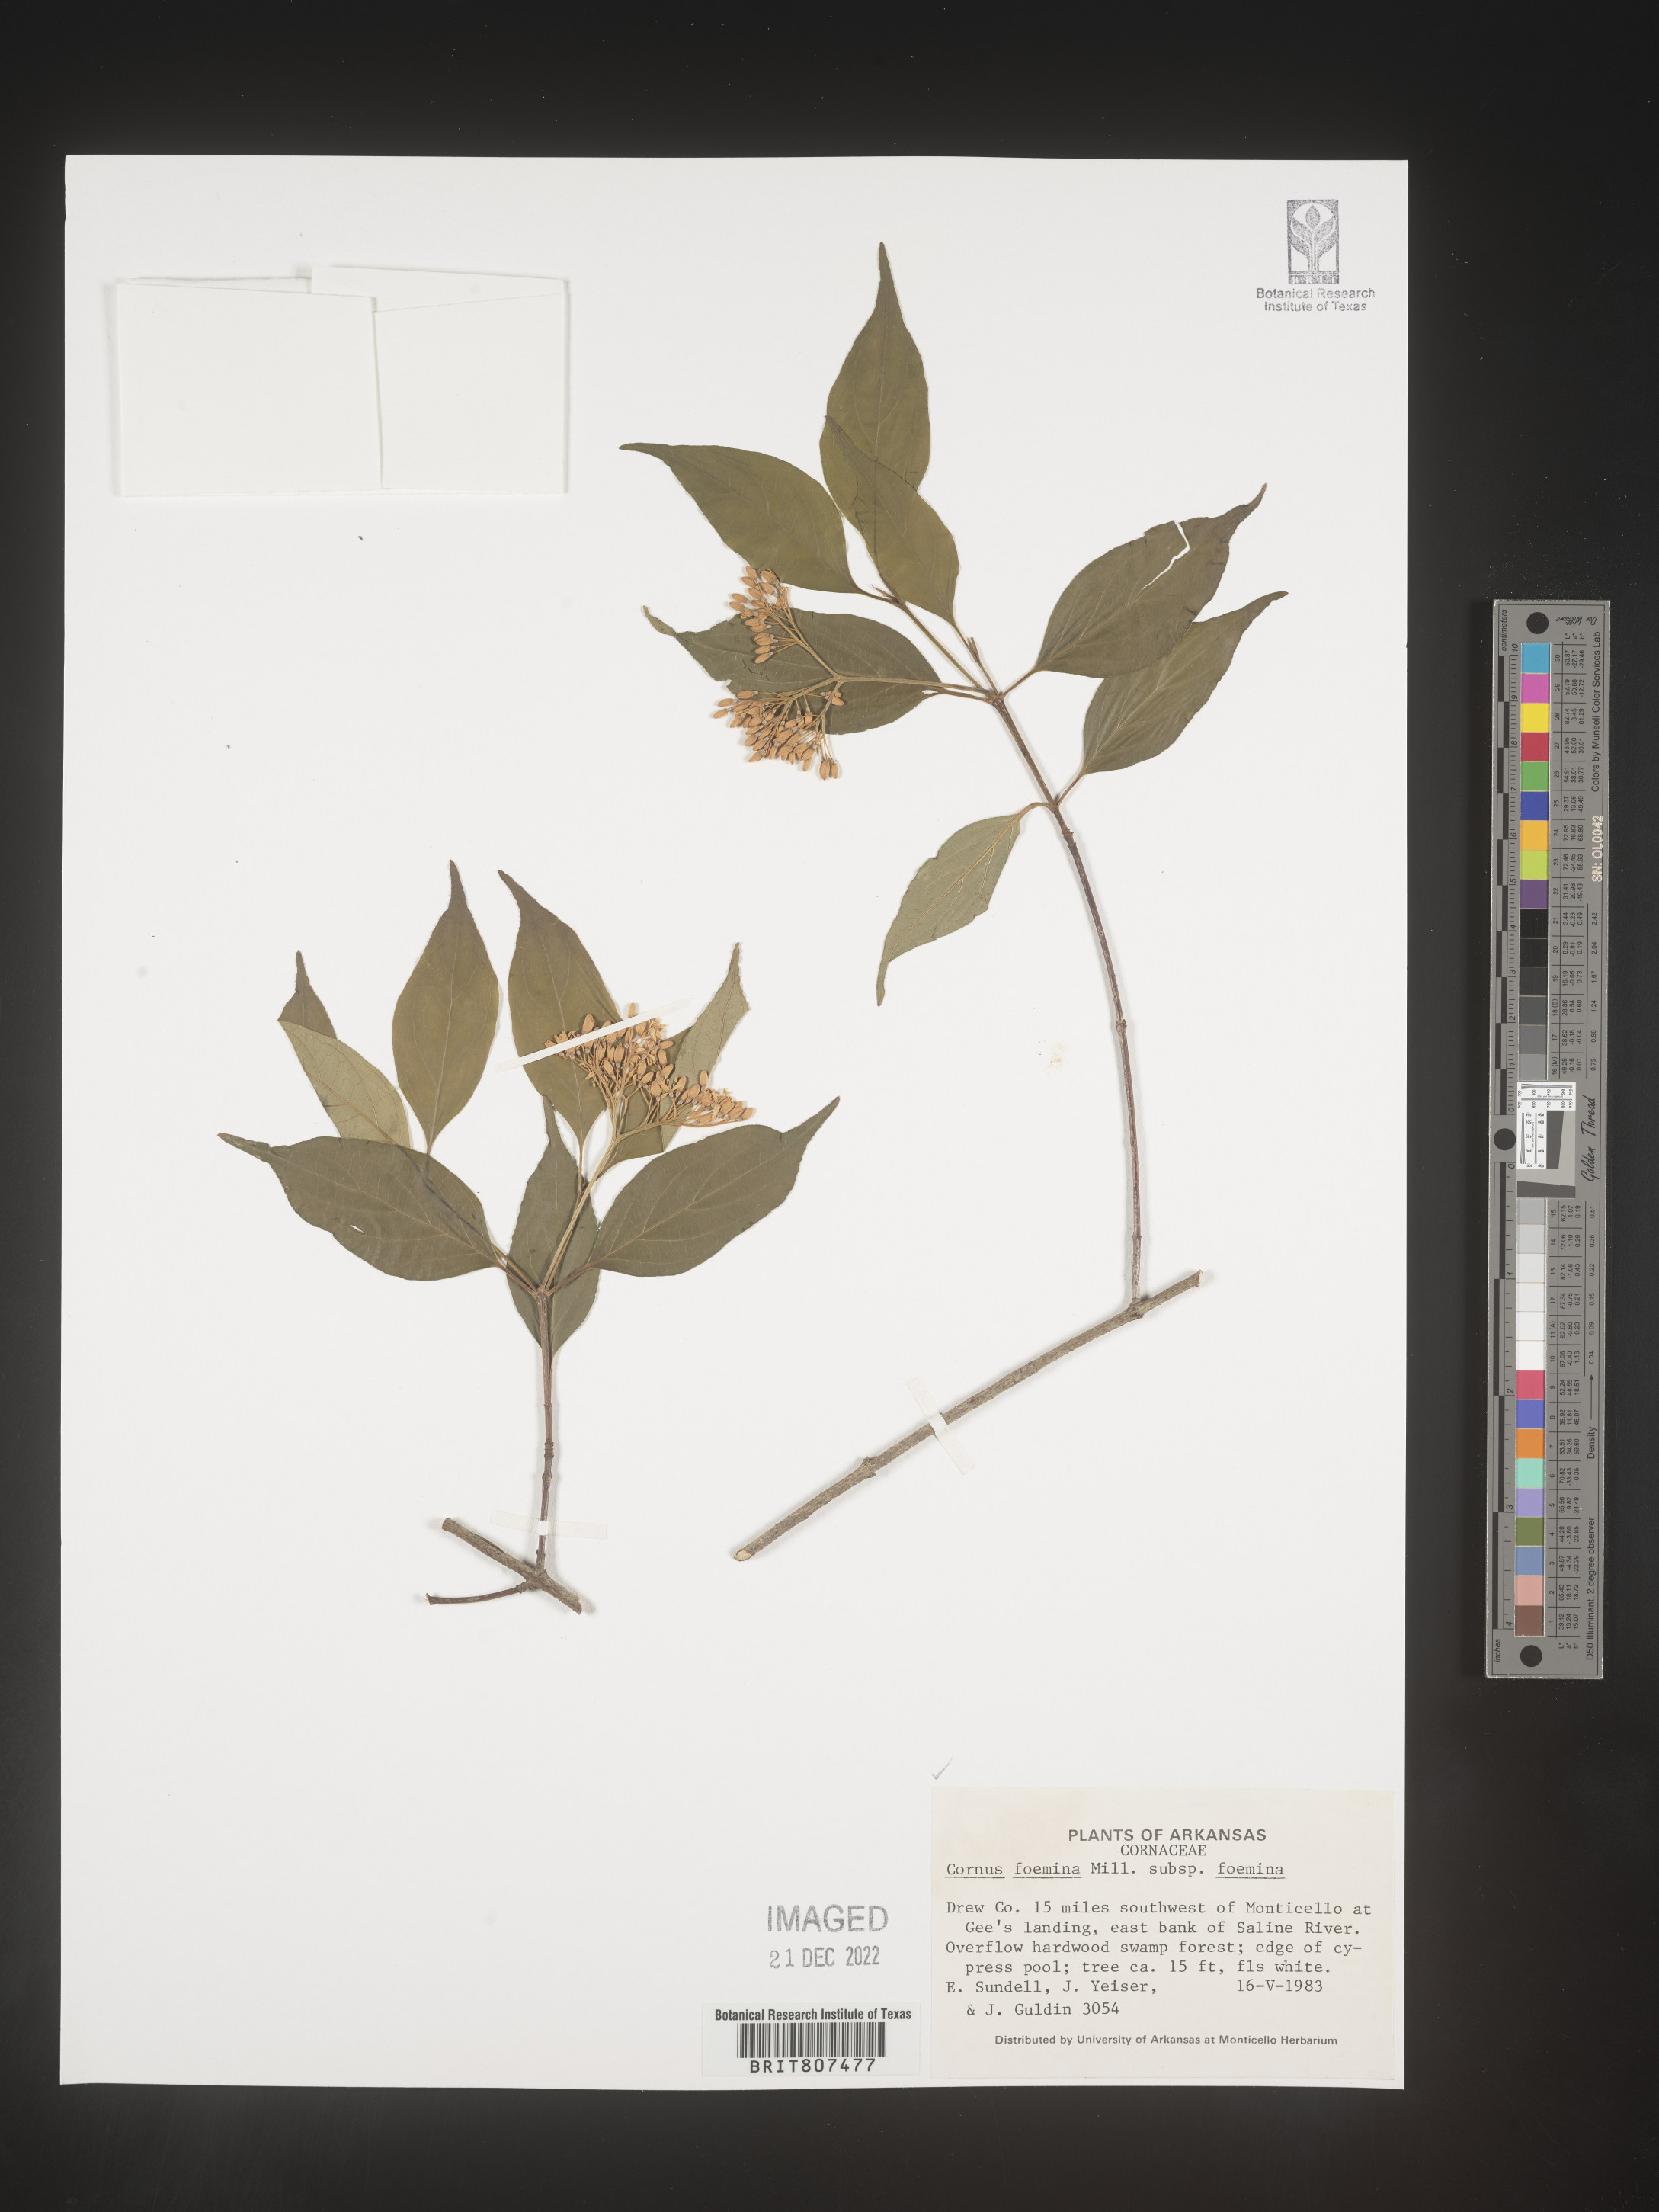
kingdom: Plantae
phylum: Tracheophyta
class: Magnoliopsida
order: Cornales
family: Cornaceae
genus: Cornus
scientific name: Cornus foemina
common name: Swamp dogwood
